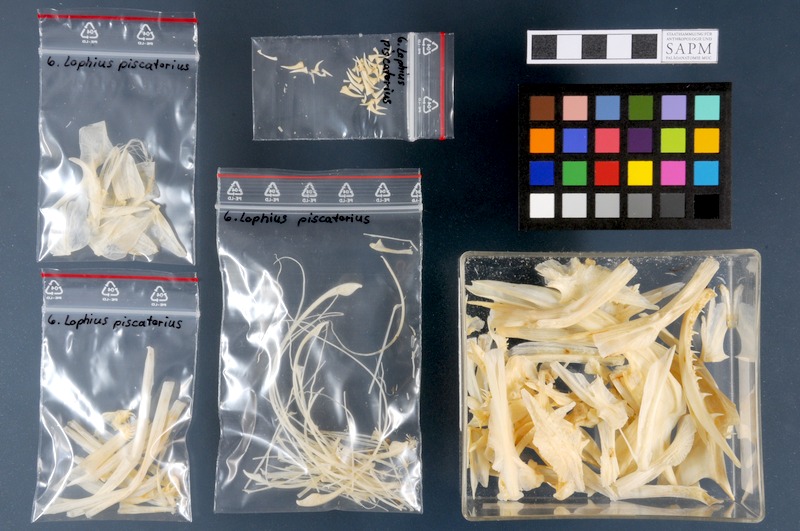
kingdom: Animalia
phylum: Chordata
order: Lophiiformes
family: Lophiidae
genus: Lophius
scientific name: Lophius piscatorius
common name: Angler
